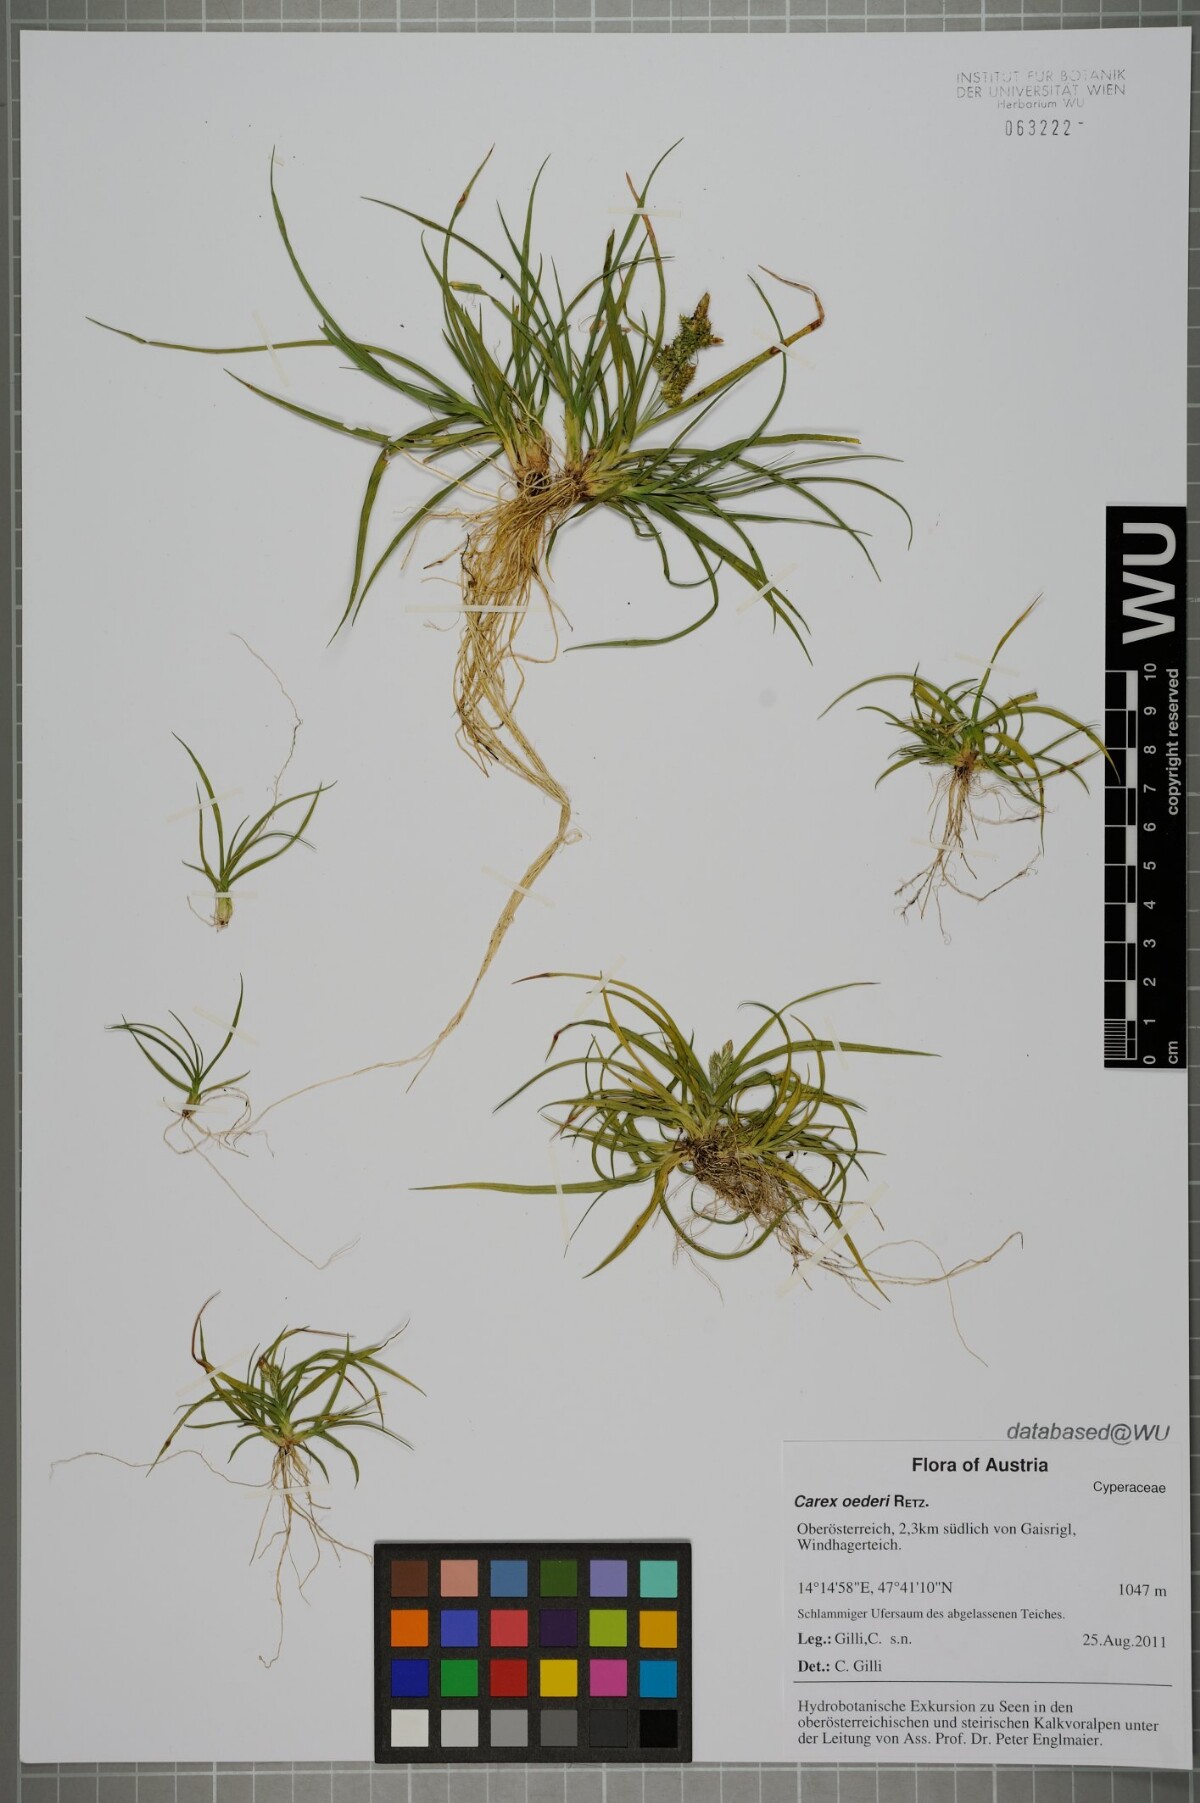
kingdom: Plantae
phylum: Tracheophyta
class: Liliopsida
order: Poales
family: Cyperaceae
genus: Carex
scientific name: Carex oederi
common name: Common & small-fruited yellow-sedge
